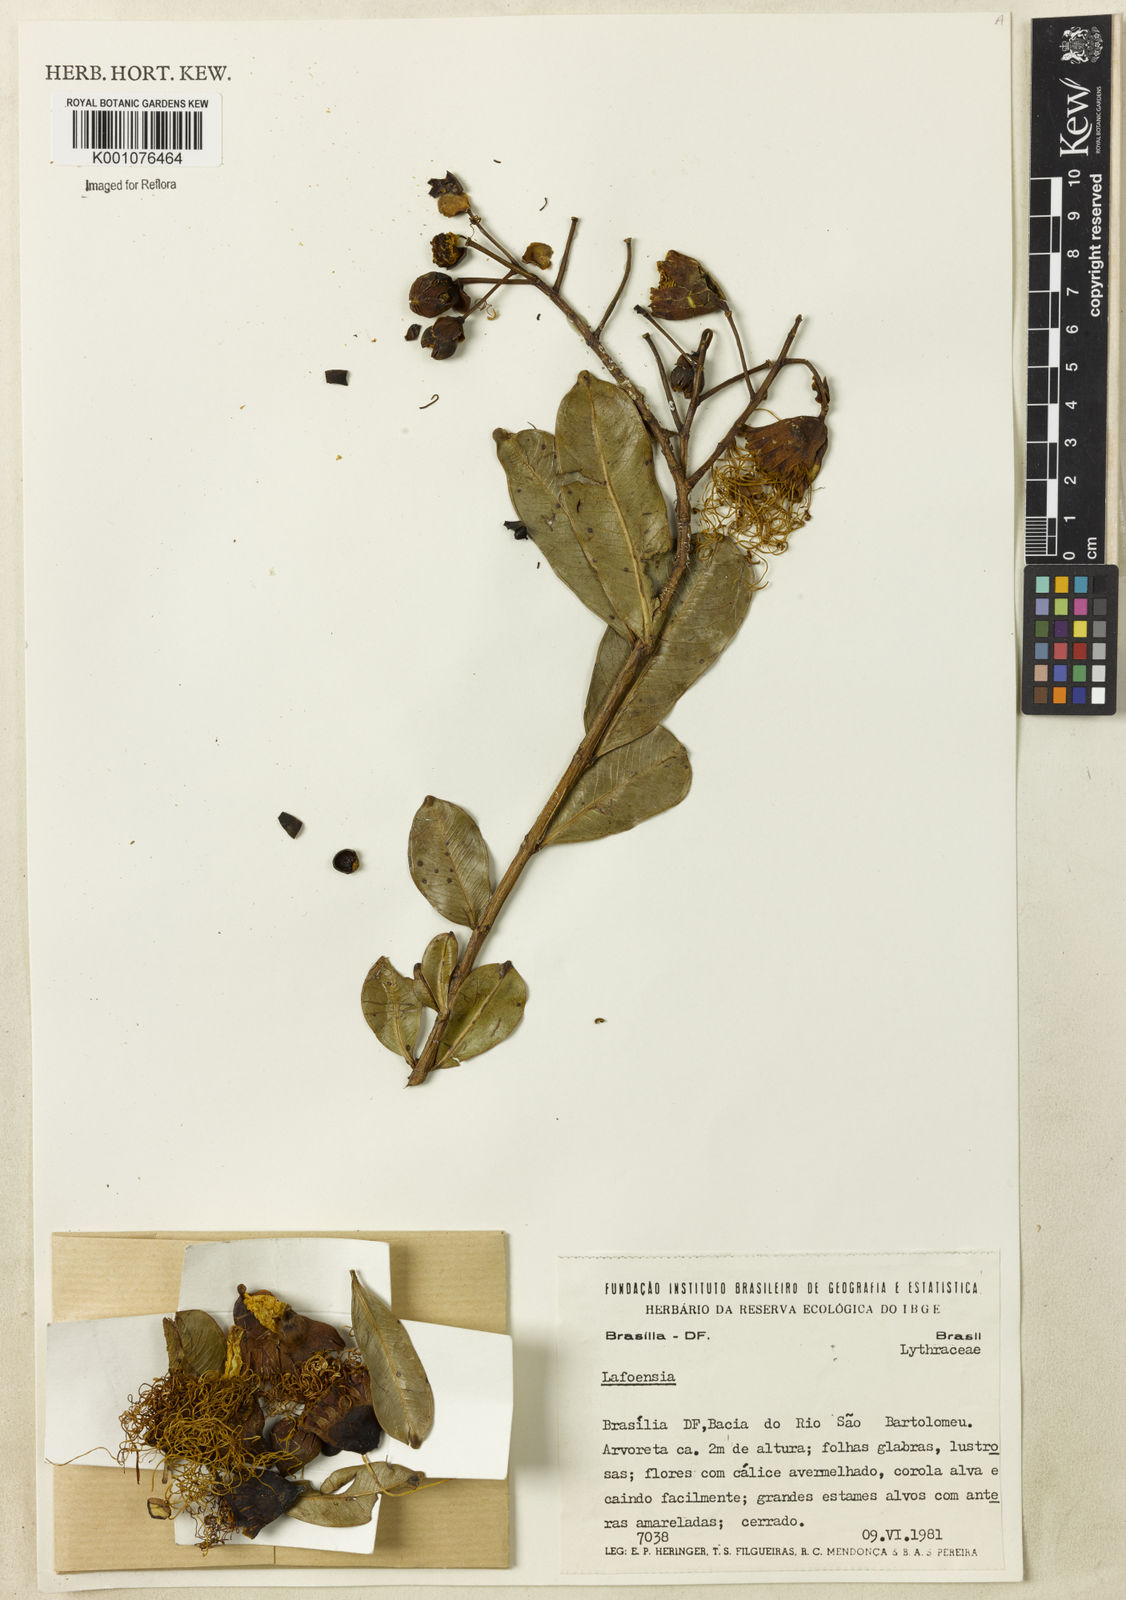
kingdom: Plantae
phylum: Tracheophyta
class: Magnoliopsida
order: Myrtales
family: Lythraceae
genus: Lafoensia
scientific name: Lafoensia
